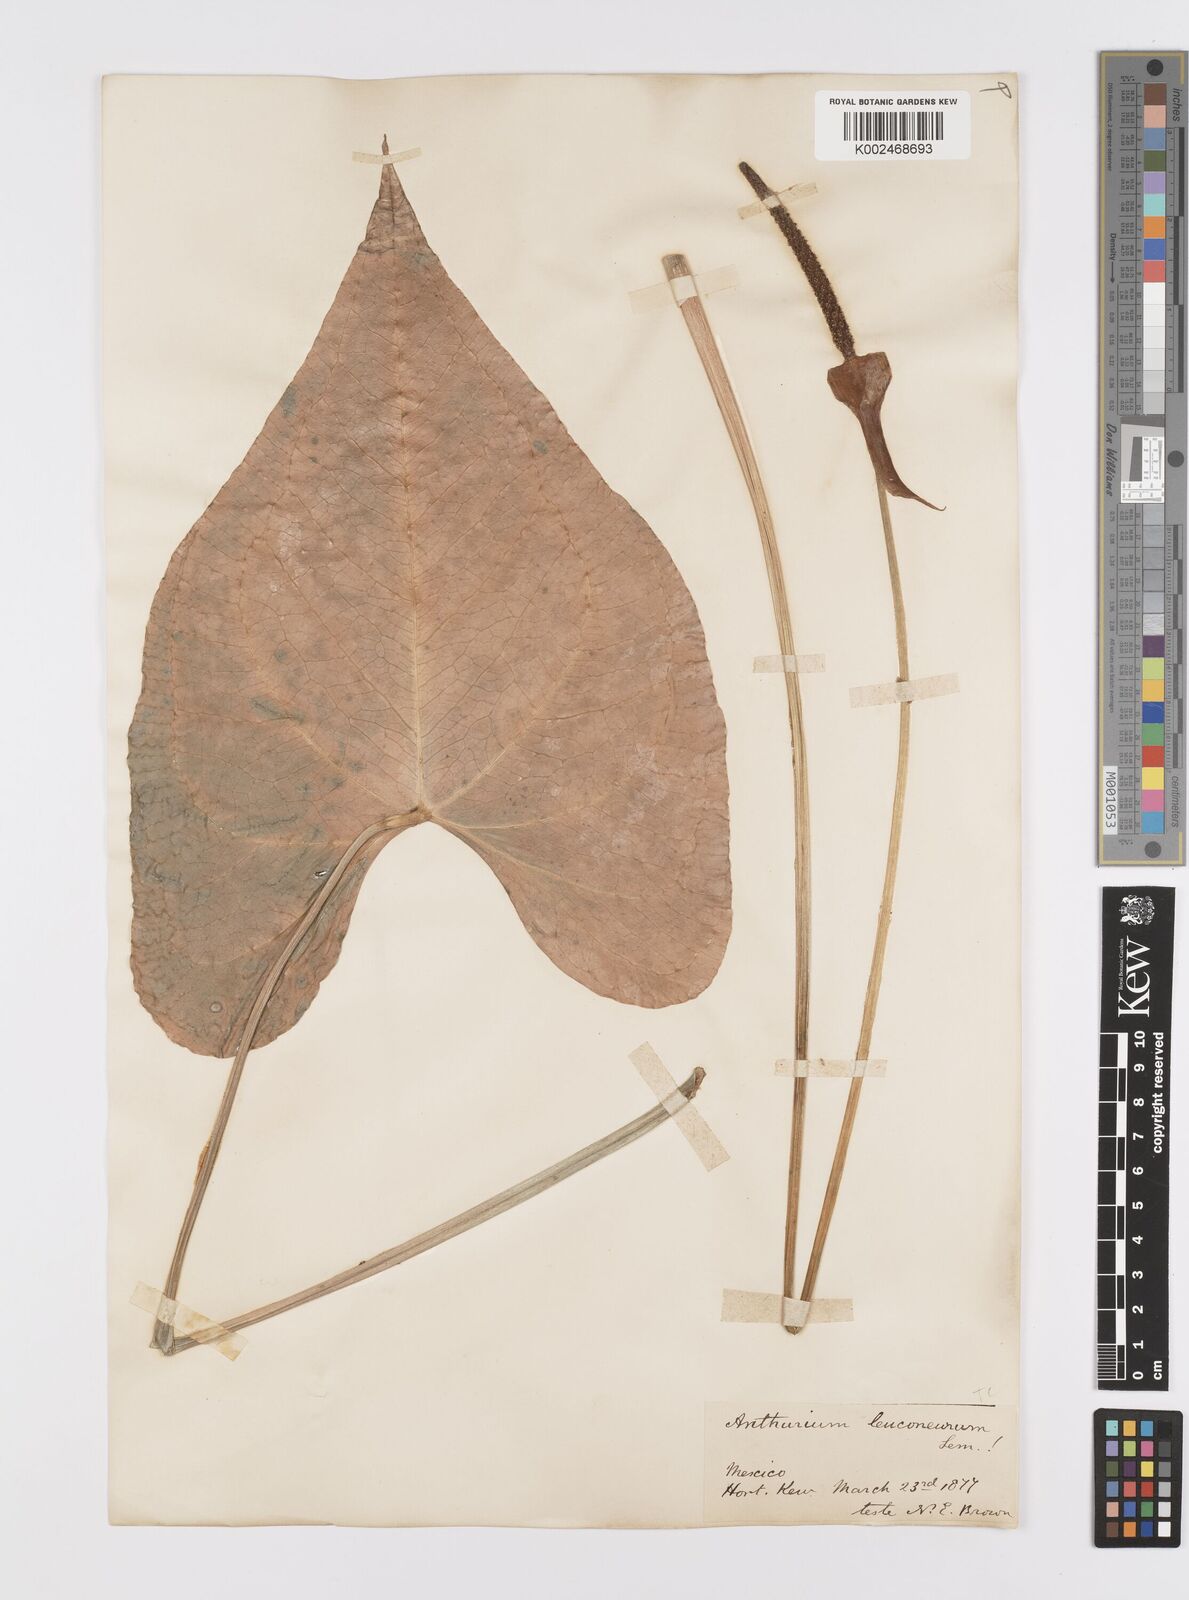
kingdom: Plantae
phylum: Tracheophyta
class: Liliopsida
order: Alismatales
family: Araceae
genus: Anthurium
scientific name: Anthurium leuconeurum
